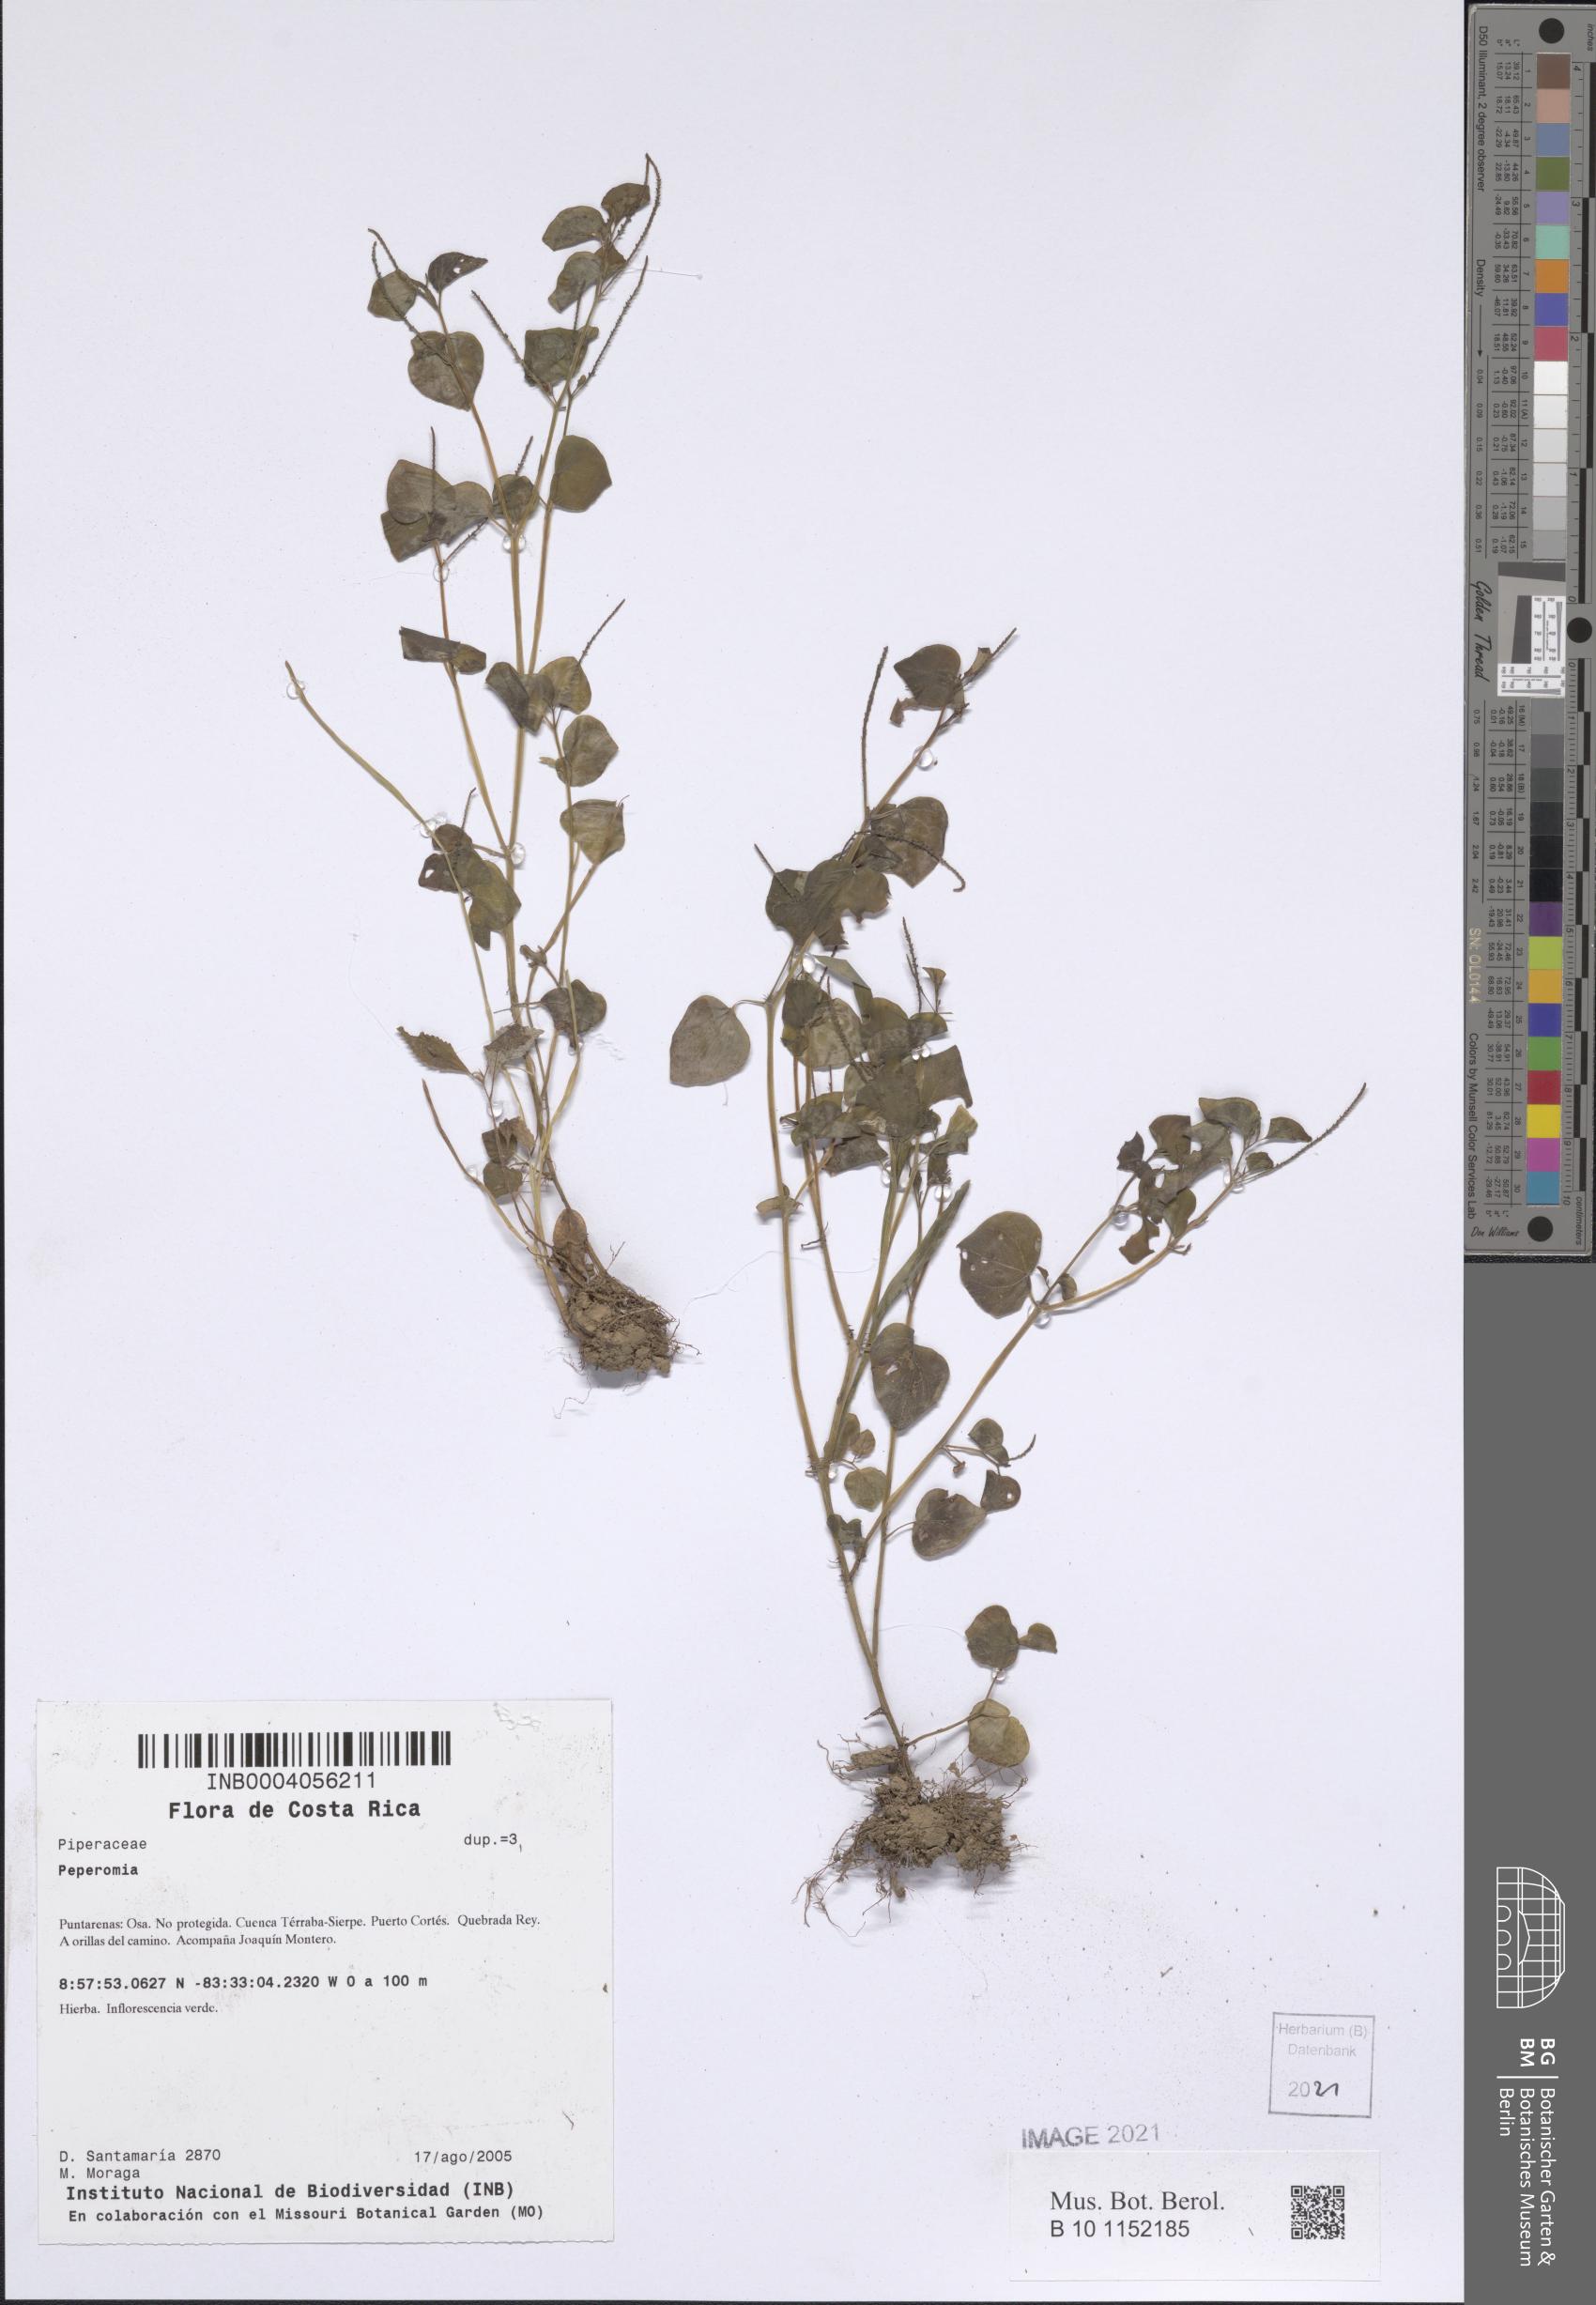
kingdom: Plantae
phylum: Tracheophyta
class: Magnoliopsida
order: Piperales
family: Piperaceae
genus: Peperomia
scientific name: Peperomia
